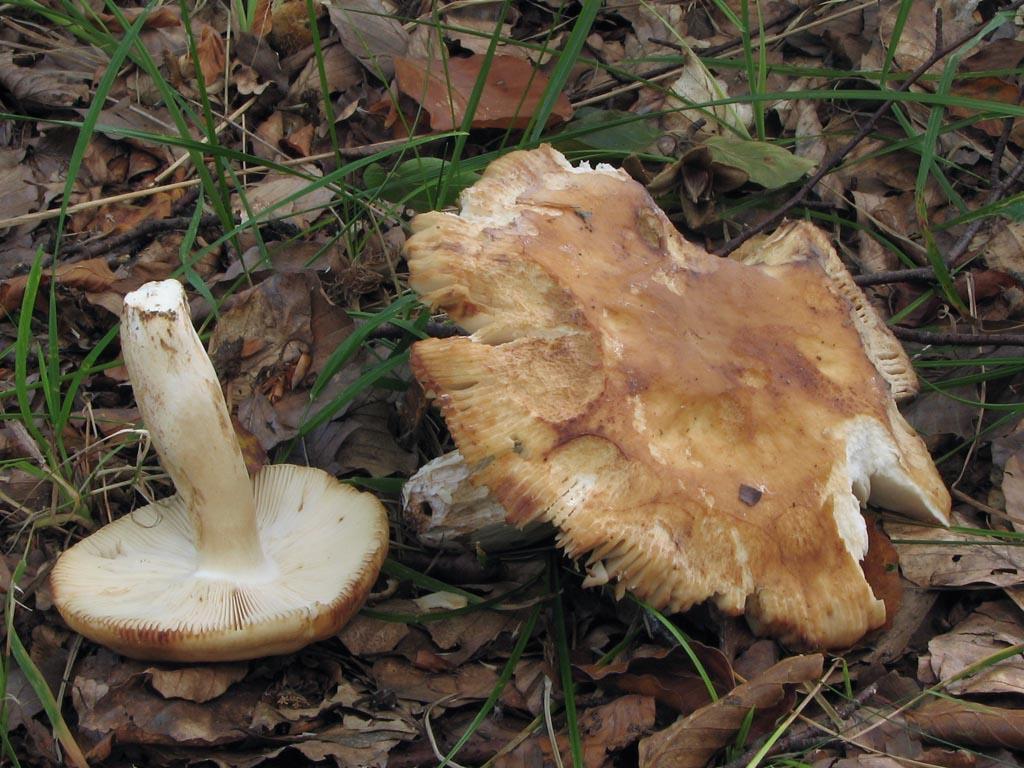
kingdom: Fungi
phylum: Basidiomycota
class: Agaricomycetes
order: Russulales
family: Russulaceae
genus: Russula
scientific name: Russula grata
